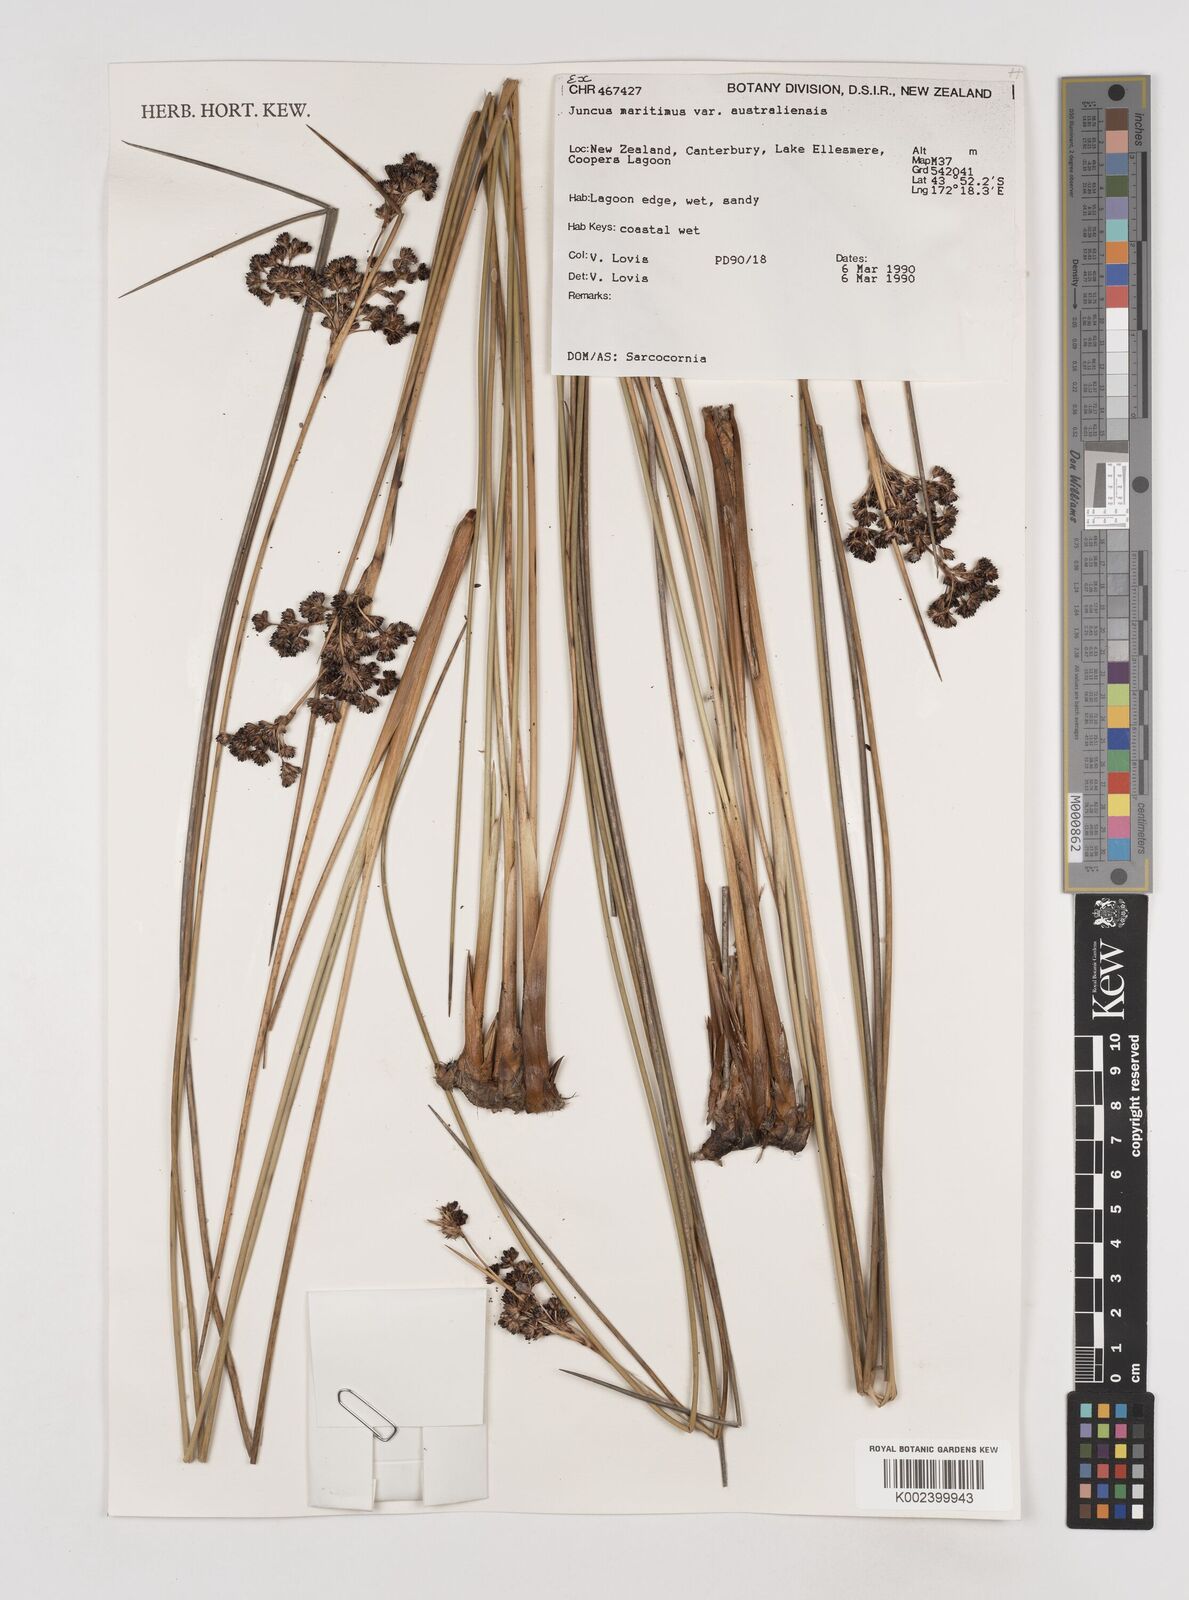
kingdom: Plantae
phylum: Tracheophyta
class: Liliopsida
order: Poales
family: Juncaceae
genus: Juncus
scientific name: Juncus kraussii
